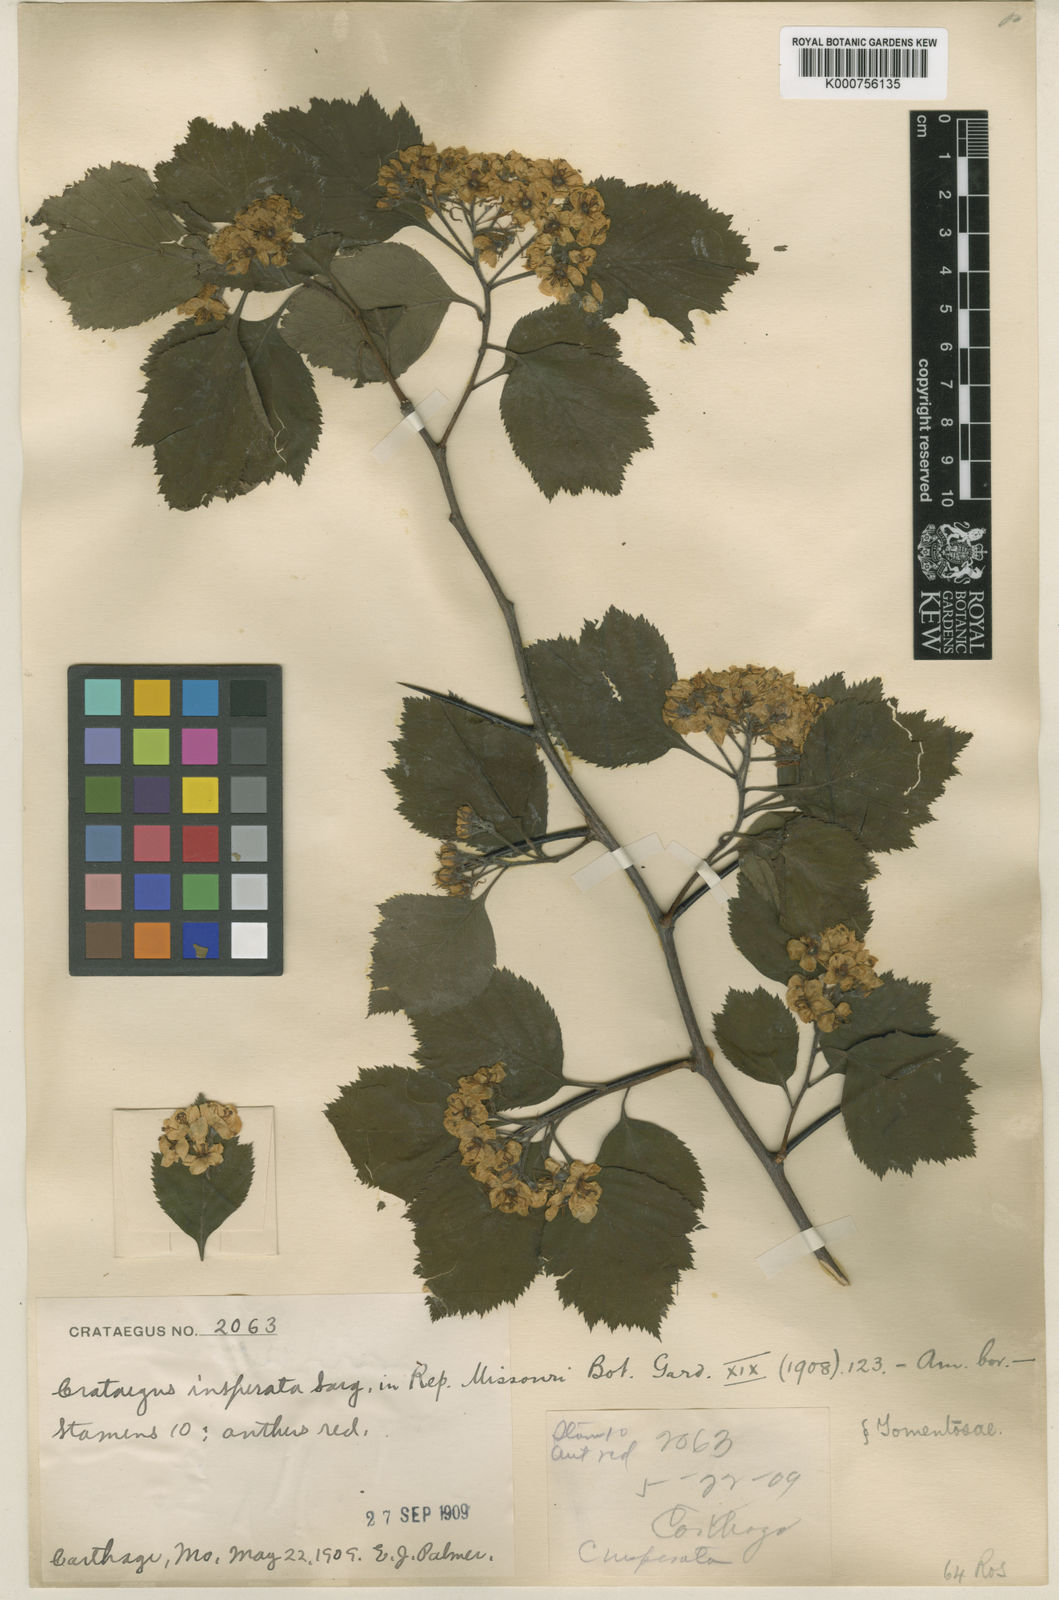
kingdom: Plantae
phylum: Tracheophyta
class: Magnoliopsida
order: Rosales
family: Rosaceae
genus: Crataegus
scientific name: Crataegus insperata
